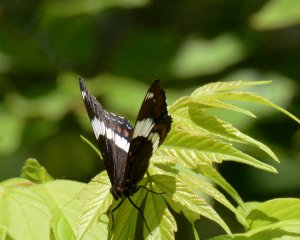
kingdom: Animalia
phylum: Arthropoda
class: Insecta
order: Lepidoptera
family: Nymphalidae
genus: Limenitis
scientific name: Limenitis arthemis
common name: Red-spotted Admiral
